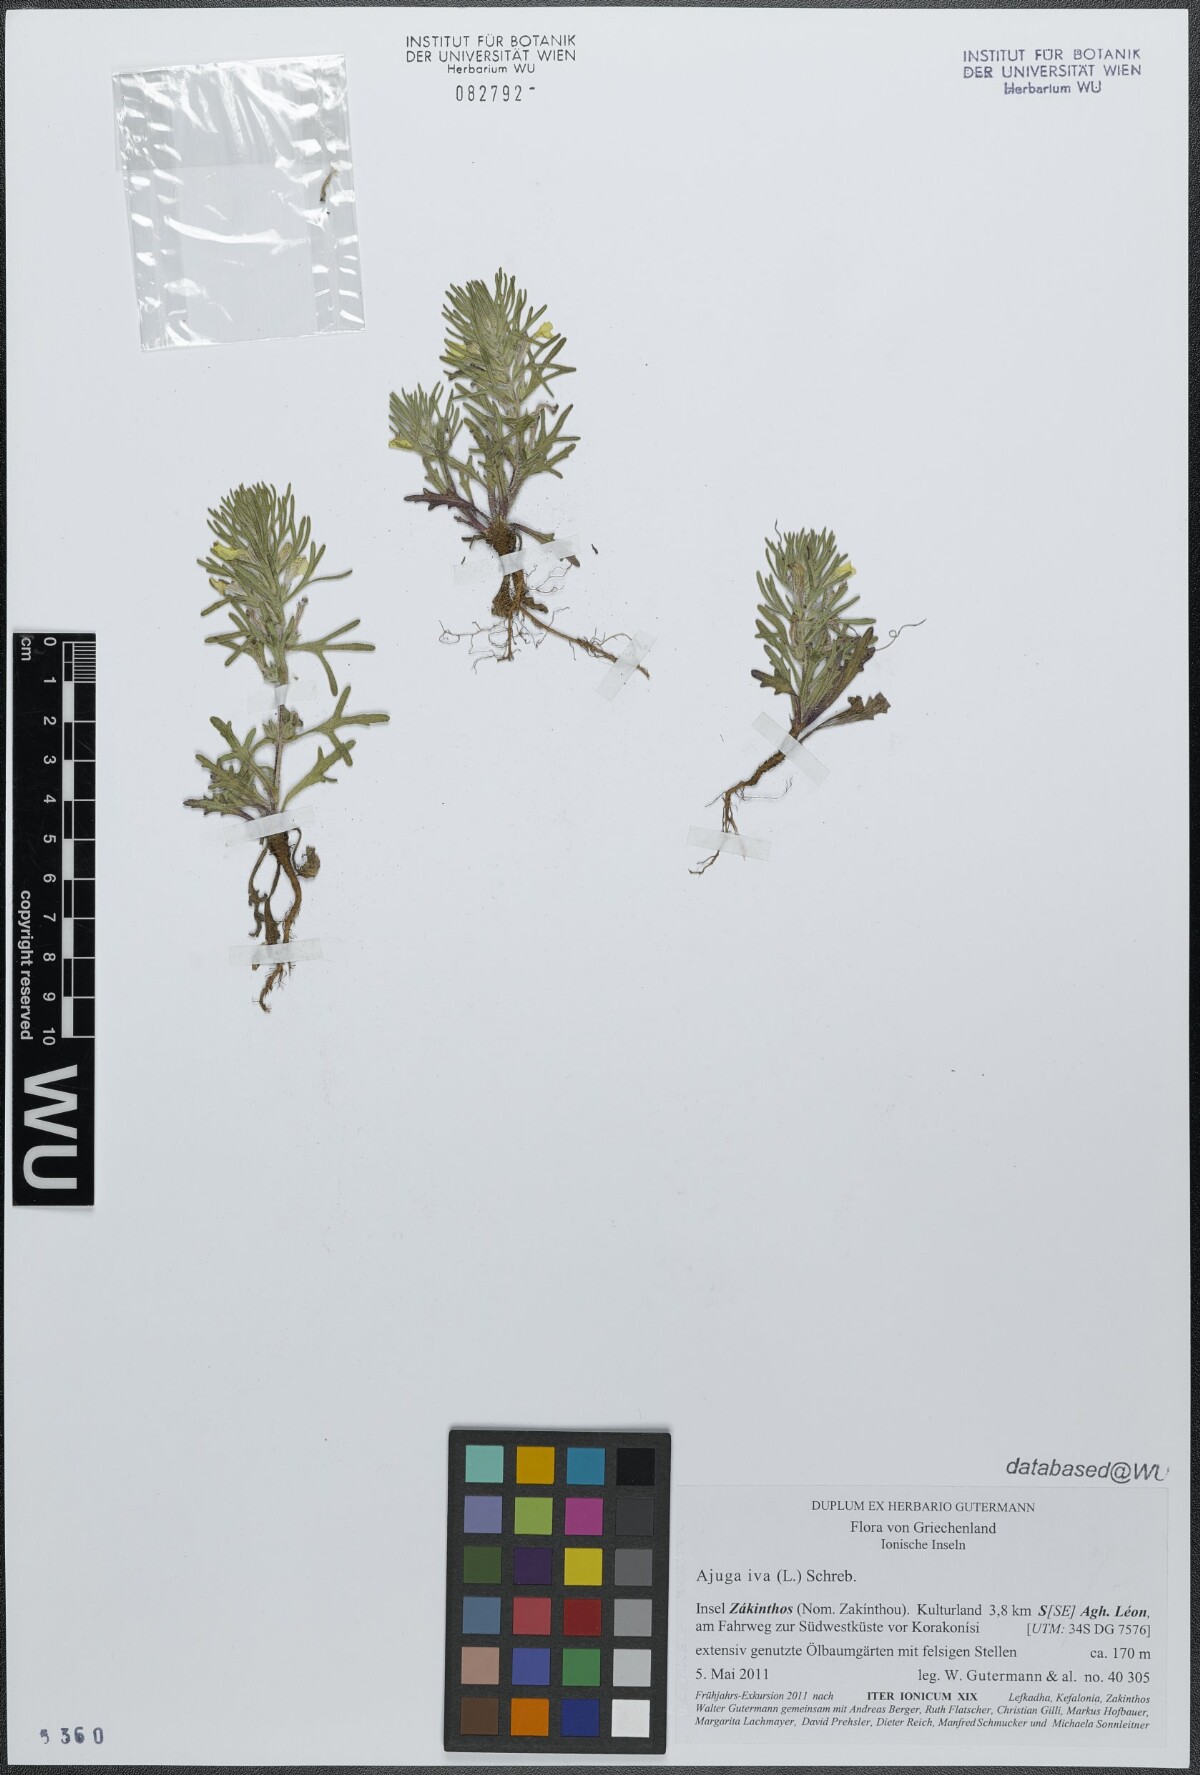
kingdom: Plantae
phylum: Tracheophyta
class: Magnoliopsida
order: Lamiales
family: Lamiaceae
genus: Ajuga
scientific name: Ajuga iva
